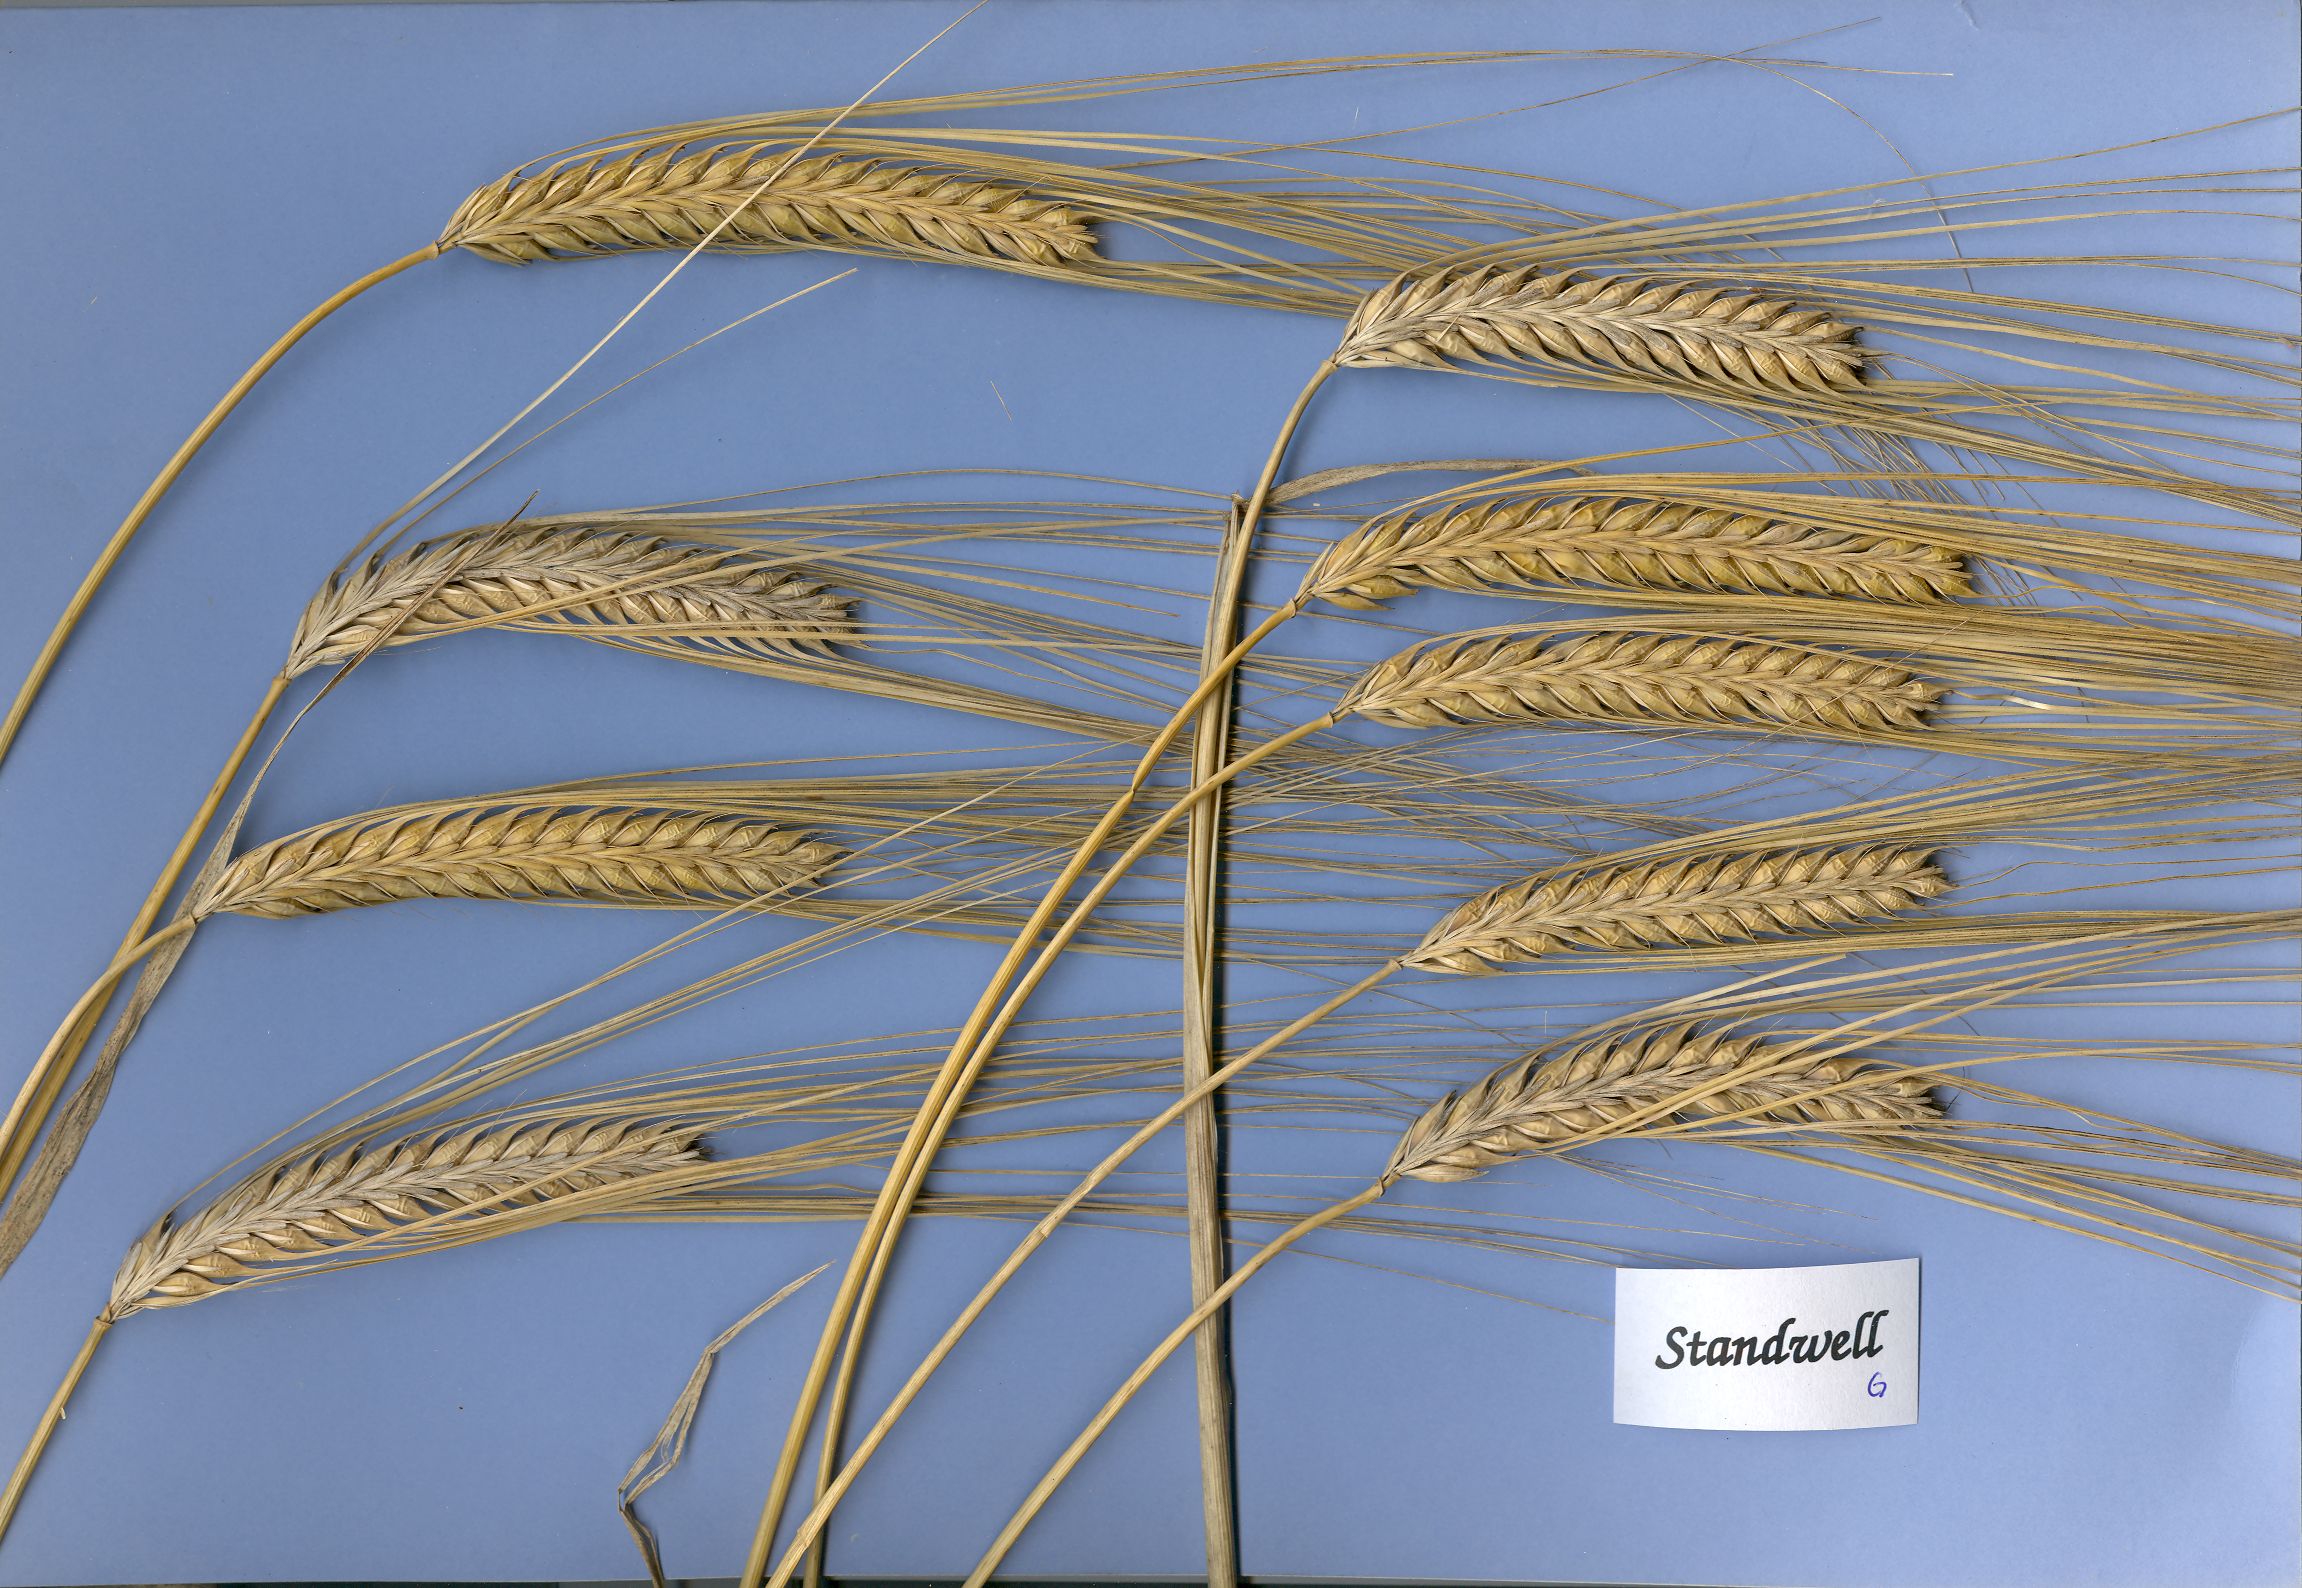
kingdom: Plantae
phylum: Tracheophyta
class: Liliopsida
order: Poales
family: Poaceae
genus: Hordeum
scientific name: Hordeum vulgare
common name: Common barley
